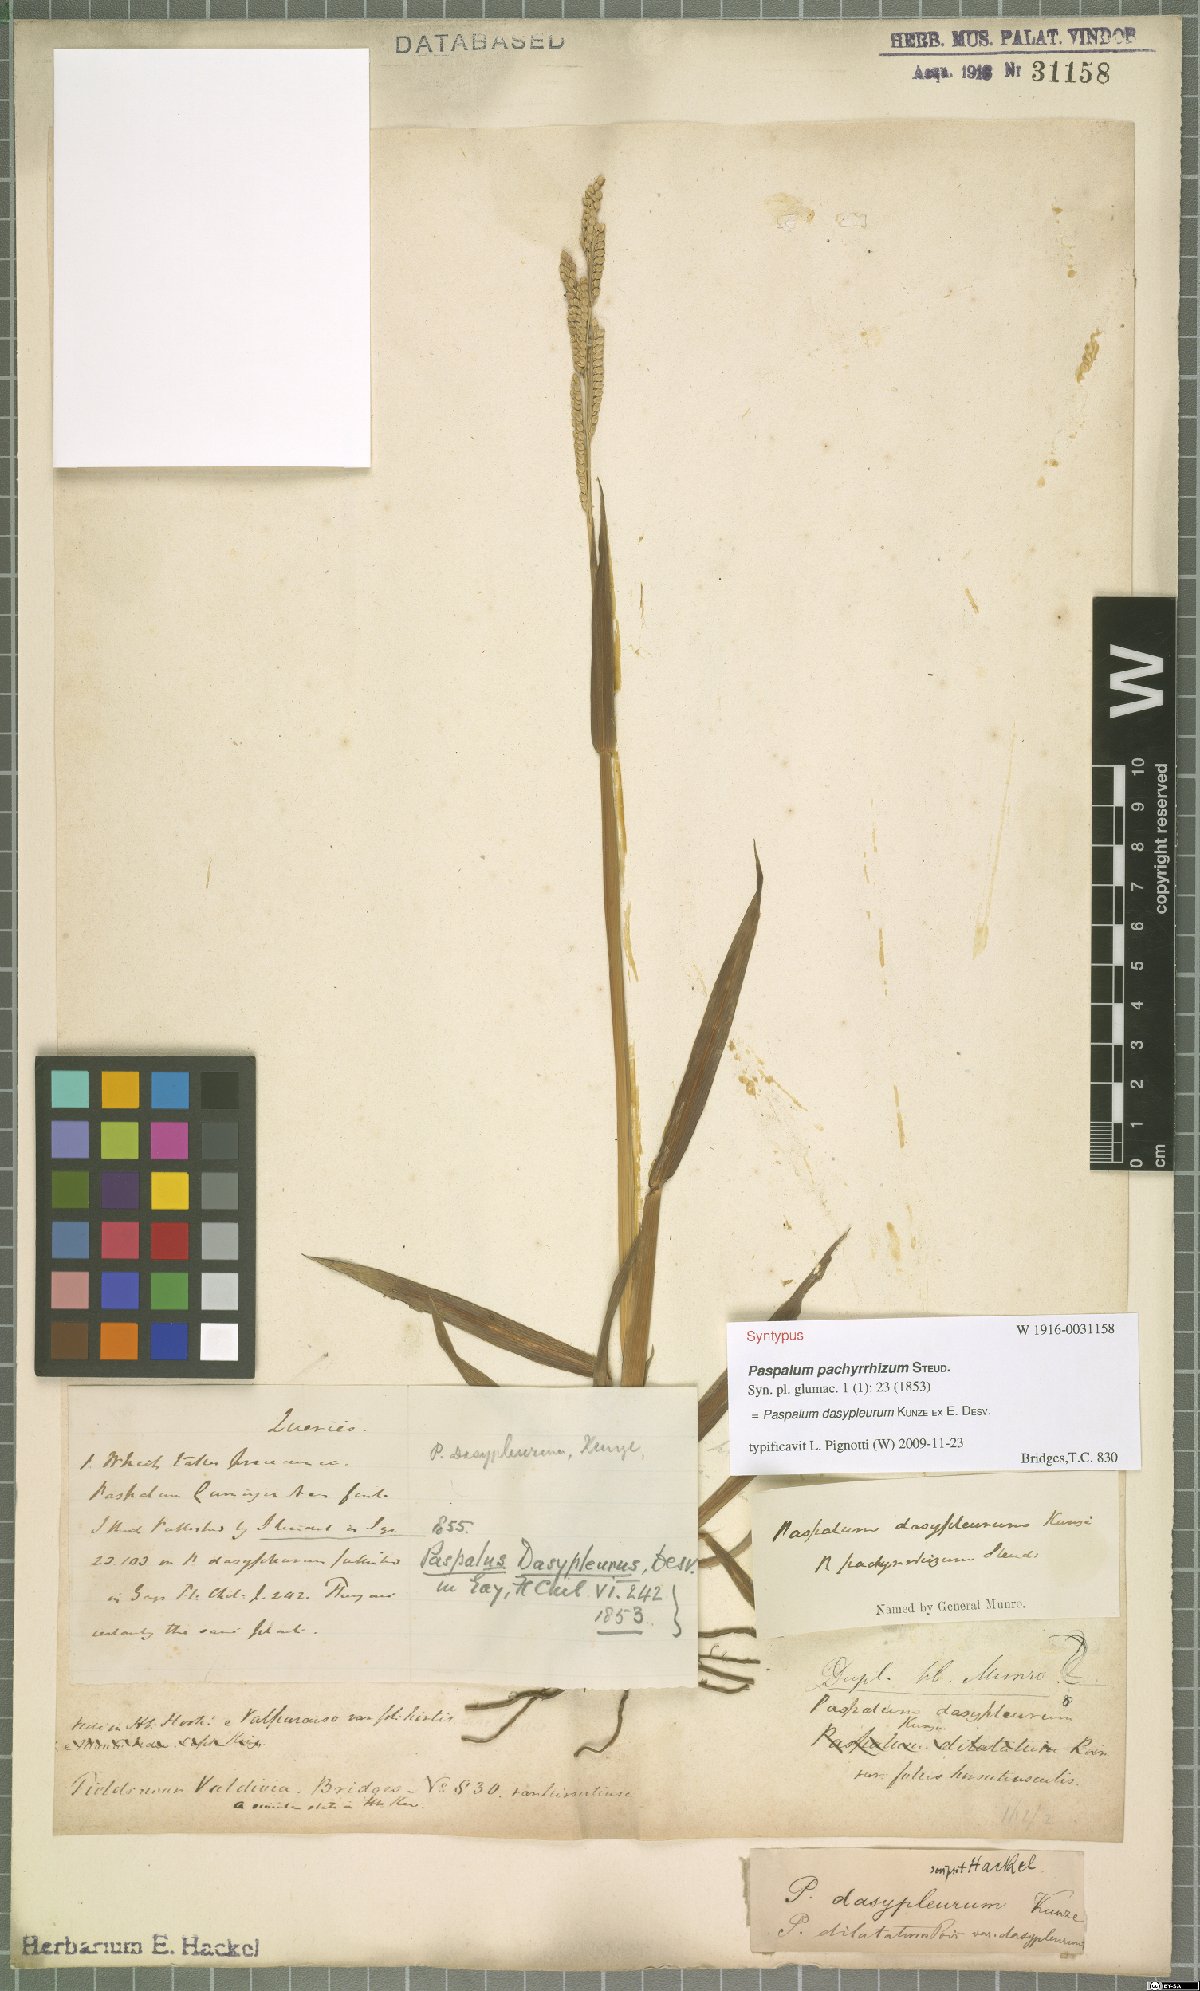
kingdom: Plantae
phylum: Tracheophyta
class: Liliopsida
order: Poales
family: Poaceae
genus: Paspalum
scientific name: Paspalum dasypleurum
